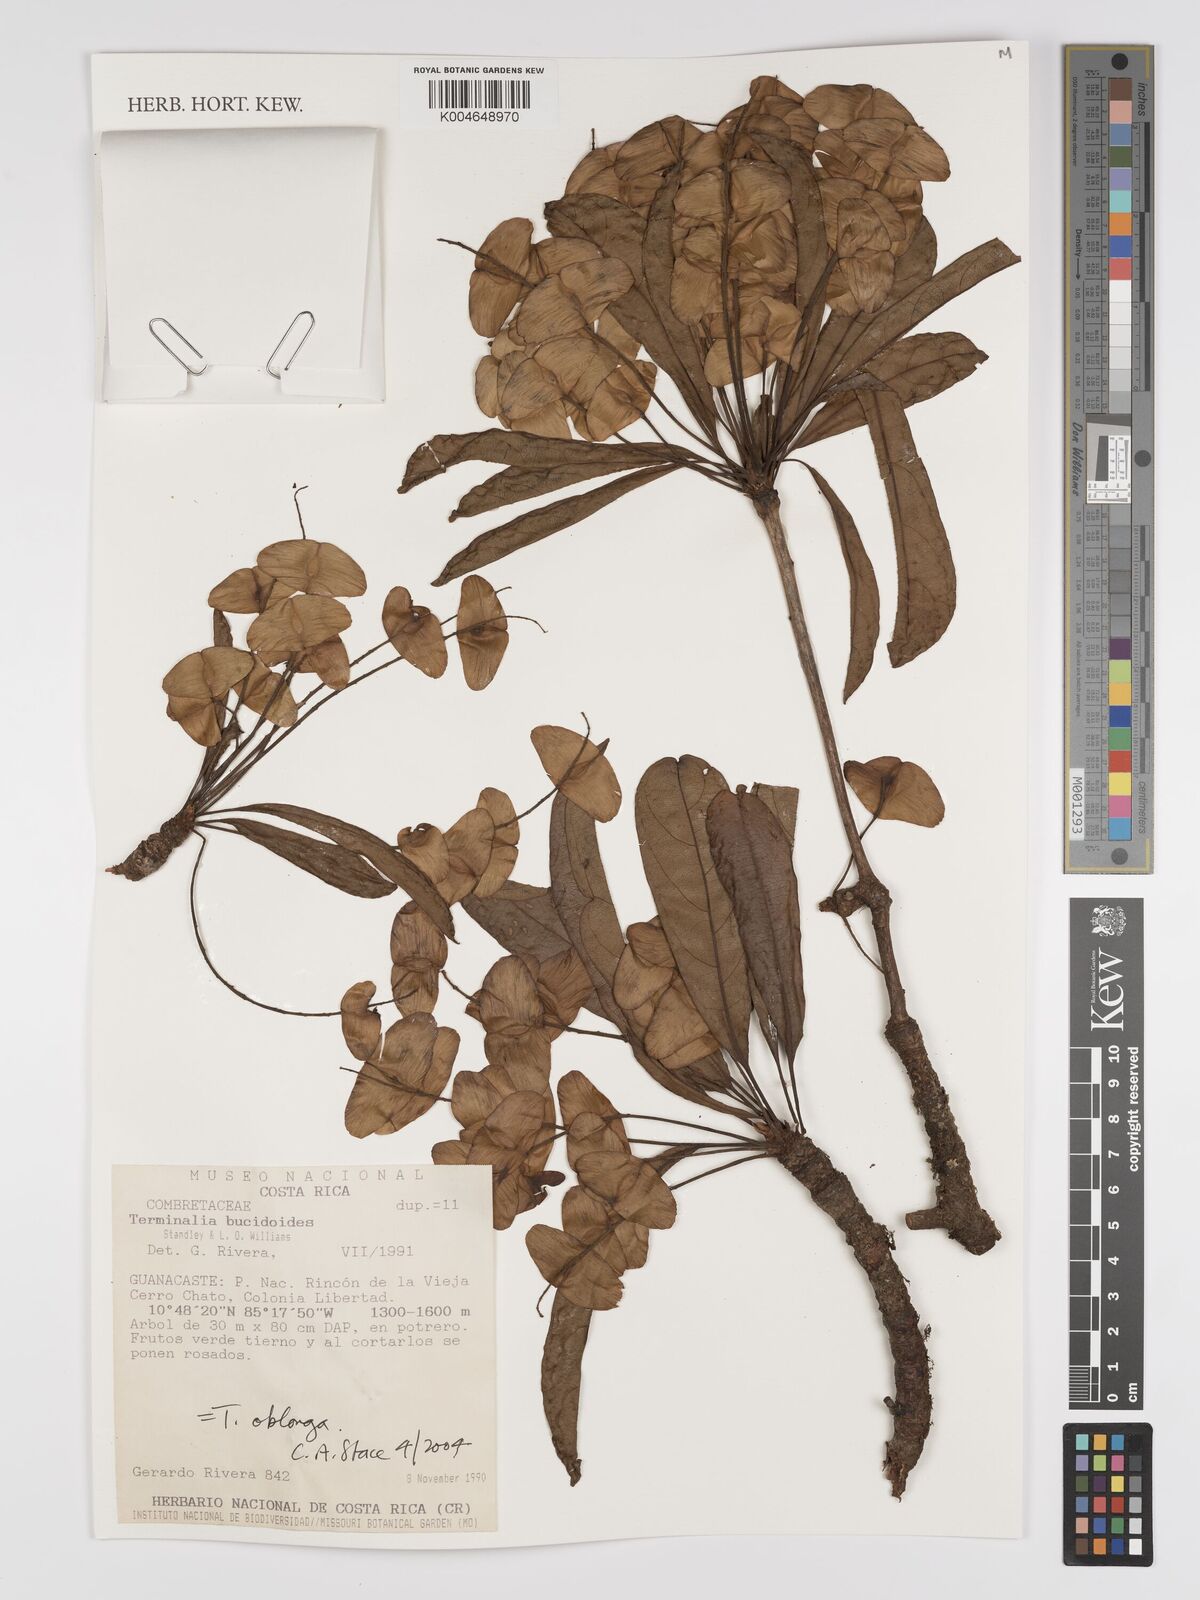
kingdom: Plantae
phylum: Tracheophyta
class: Magnoliopsida
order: Myrtales
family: Combretaceae
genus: Terminalia
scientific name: Terminalia oblonga
